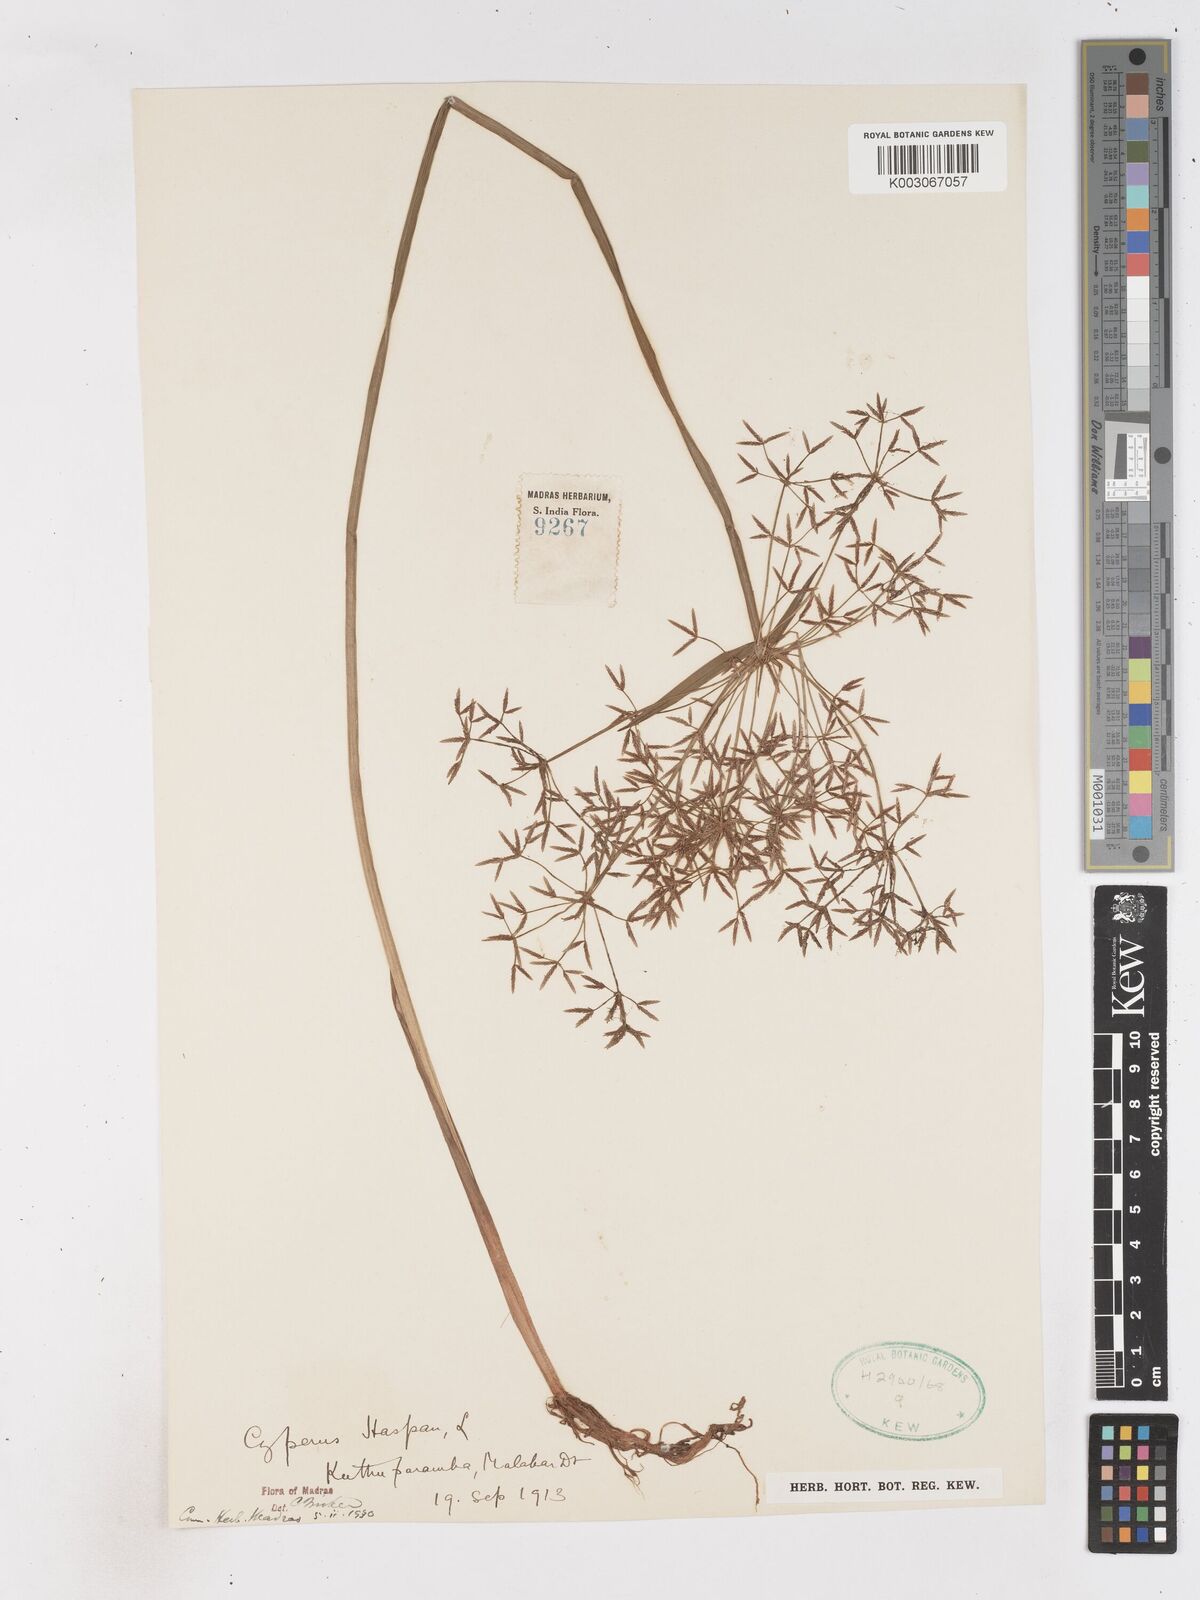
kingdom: Plantae
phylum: Tracheophyta
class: Liliopsida
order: Poales
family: Cyperaceae
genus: Cyperus
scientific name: Cyperus haspan
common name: Haspan flatsedge
